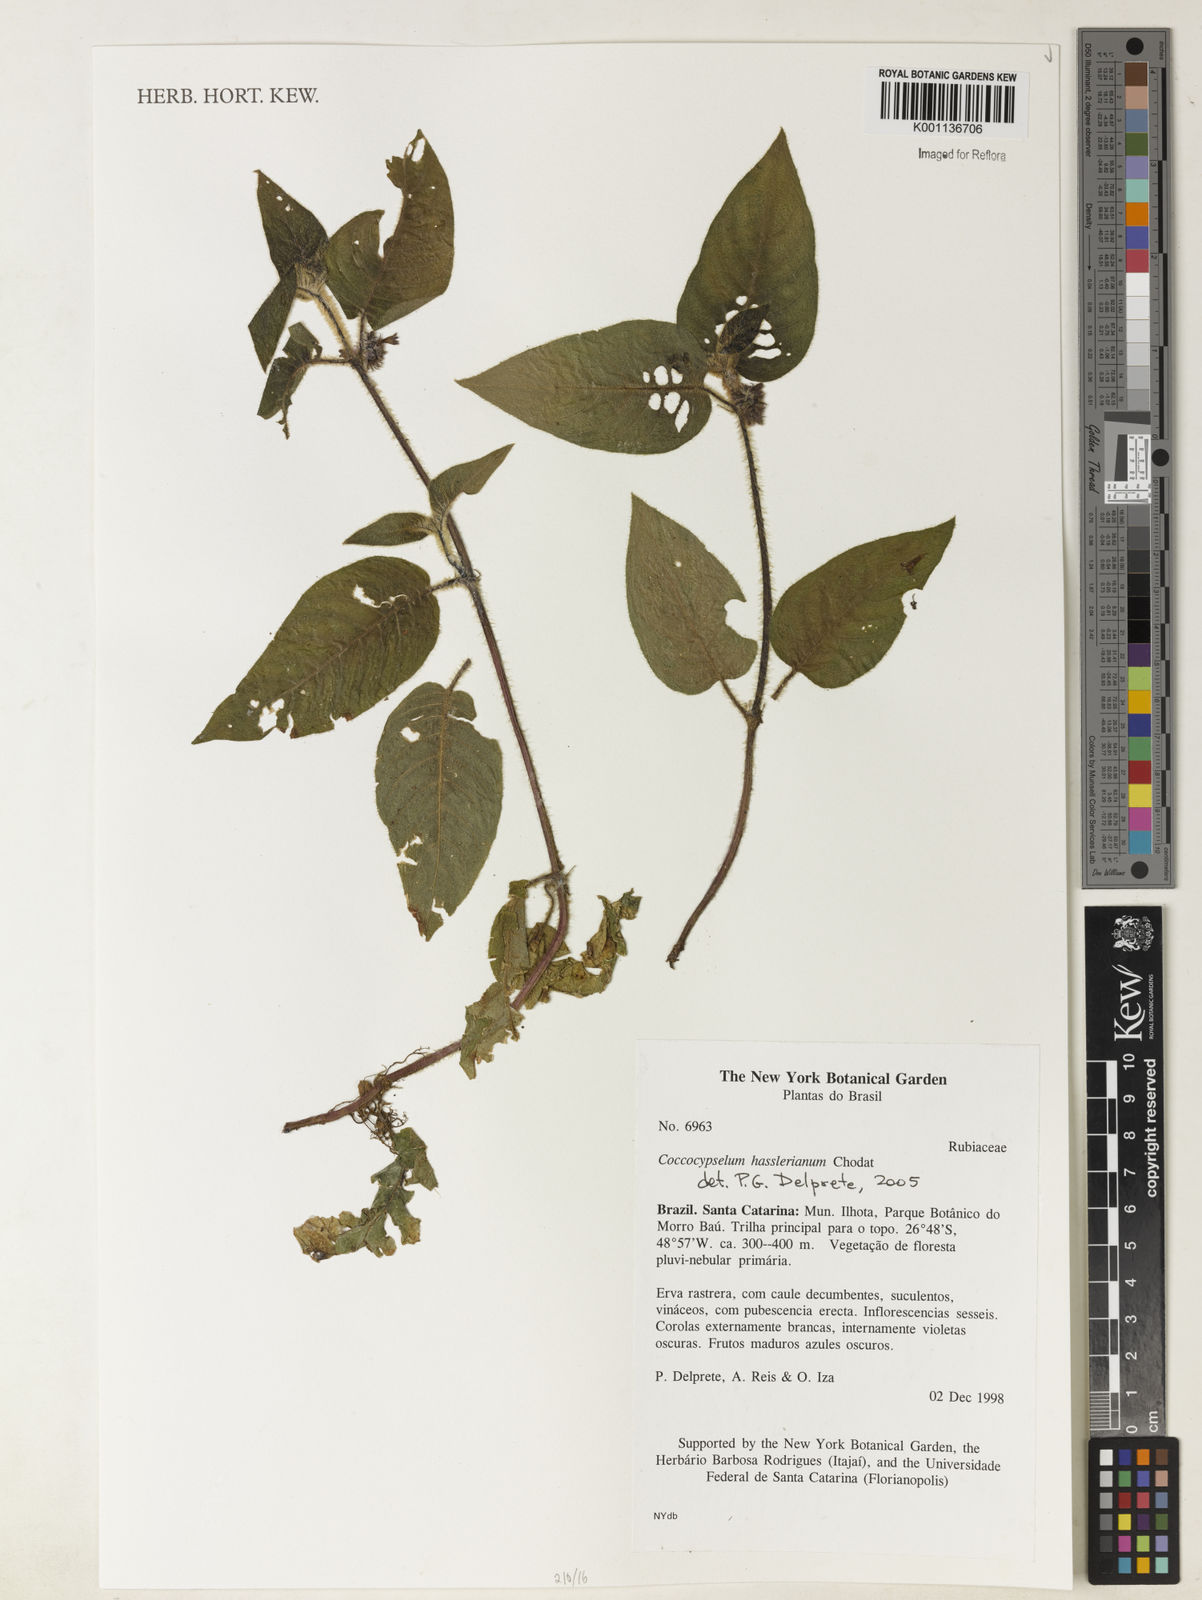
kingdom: Plantae
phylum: Tracheophyta
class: Magnoliopsida
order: Gentianales
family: Rubiaceae
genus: Coccocypselum
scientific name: Coccocypselum hasslerianum
